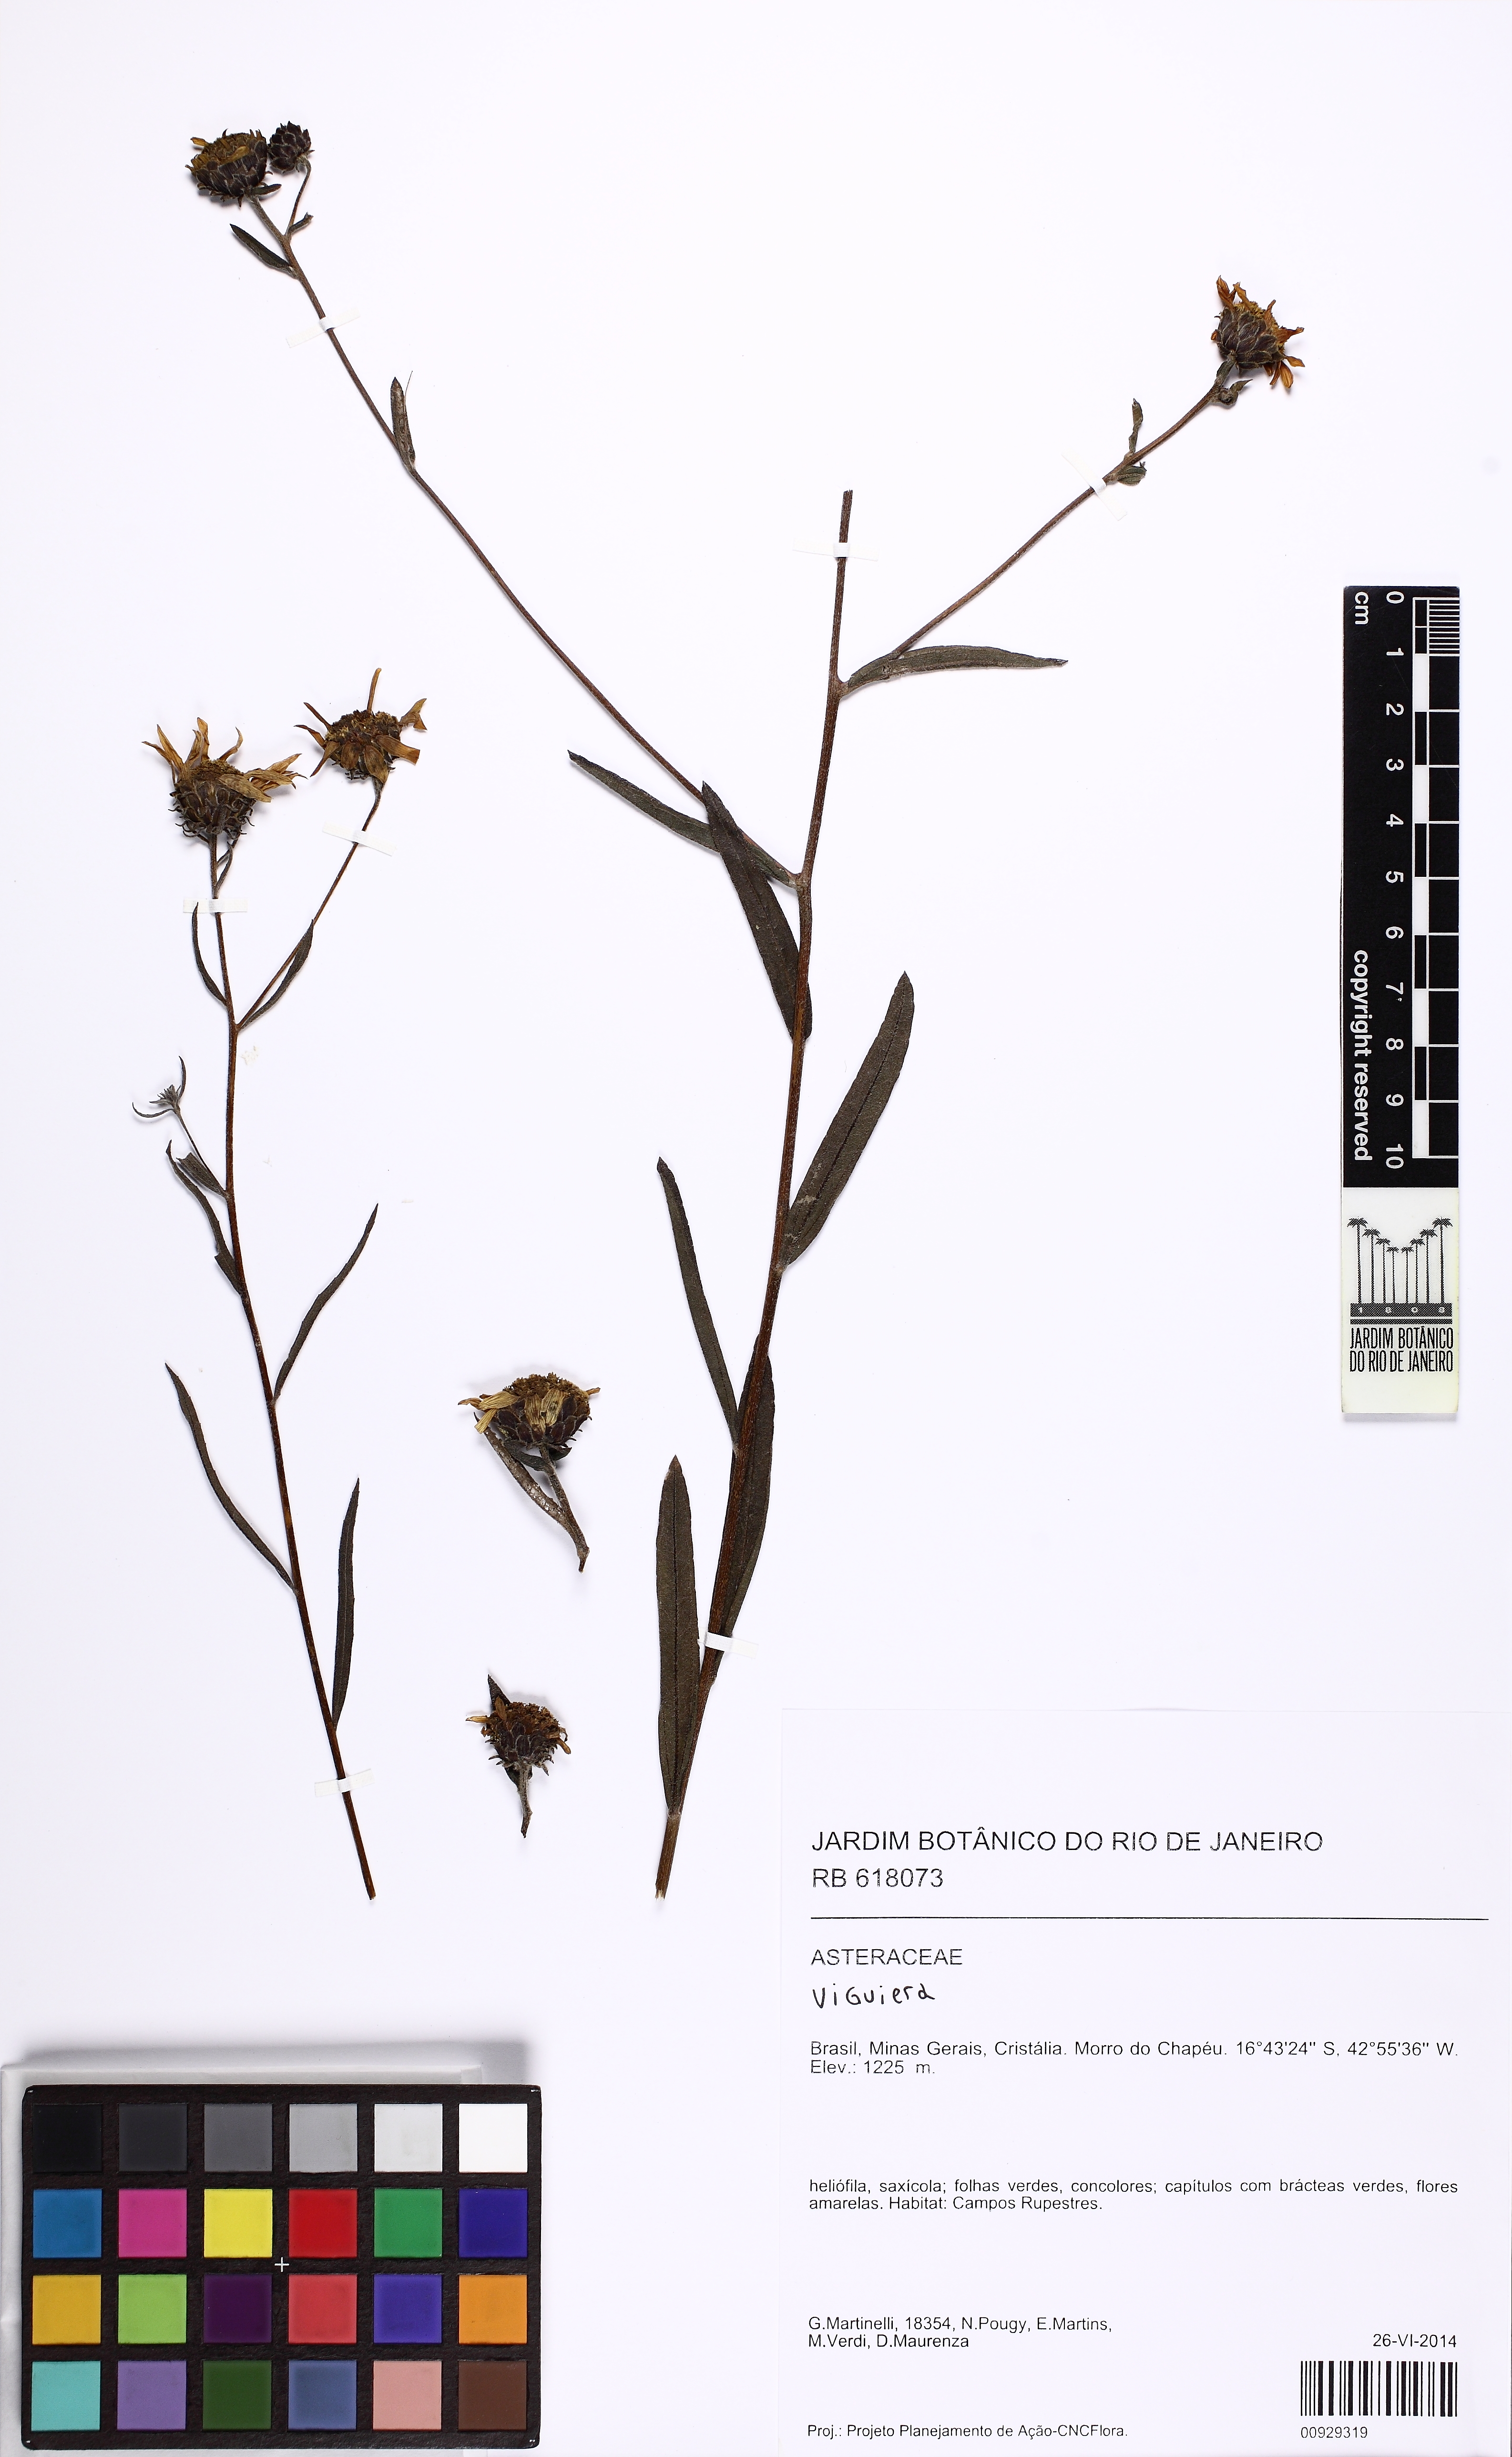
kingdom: Plantae
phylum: Tracheophyta
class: Magnoliopsida
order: Asterales
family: Asteraceae
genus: Viguiera
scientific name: Viguiera
